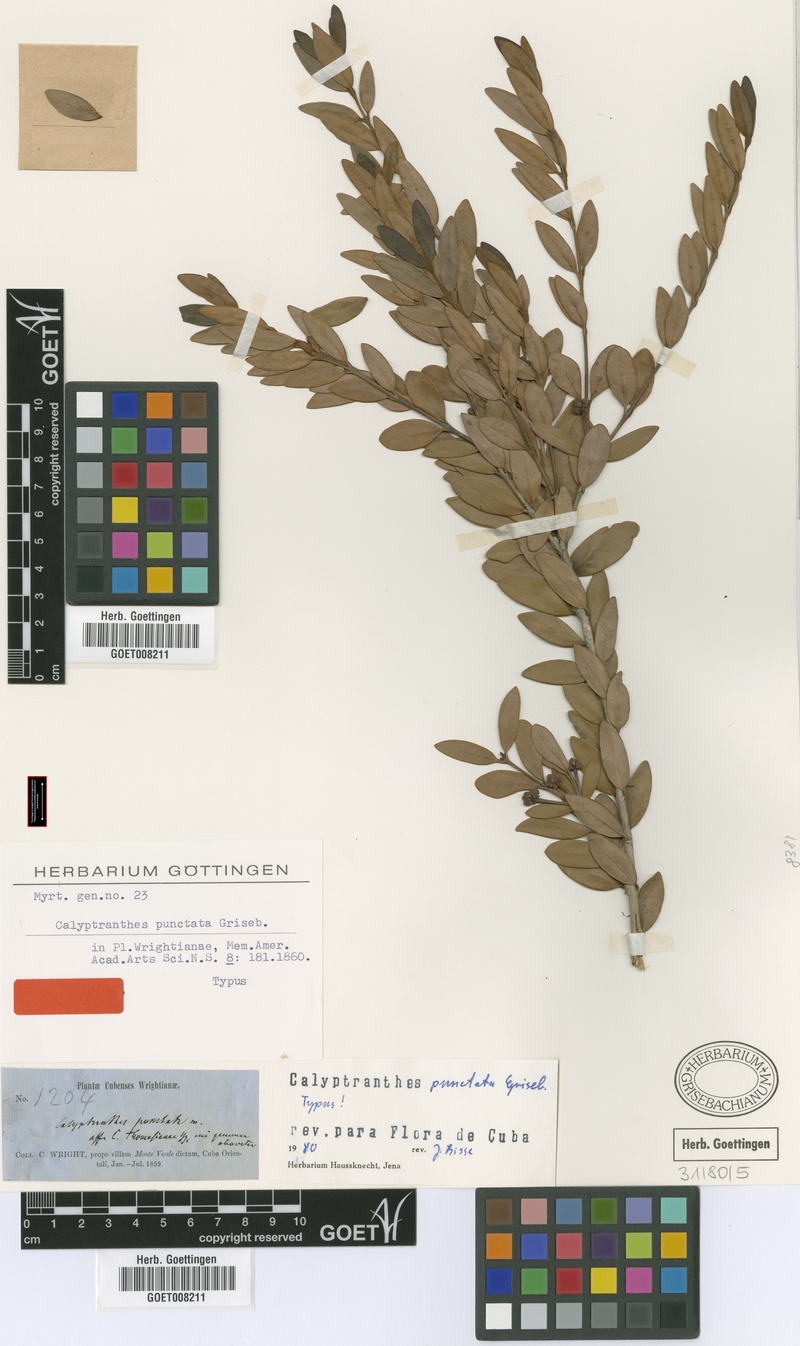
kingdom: Plantae
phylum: Tracheophyta
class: Magnoliopsida
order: Myrtales
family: Myrtaceae
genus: Myrcia
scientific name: Myrcia foramina
